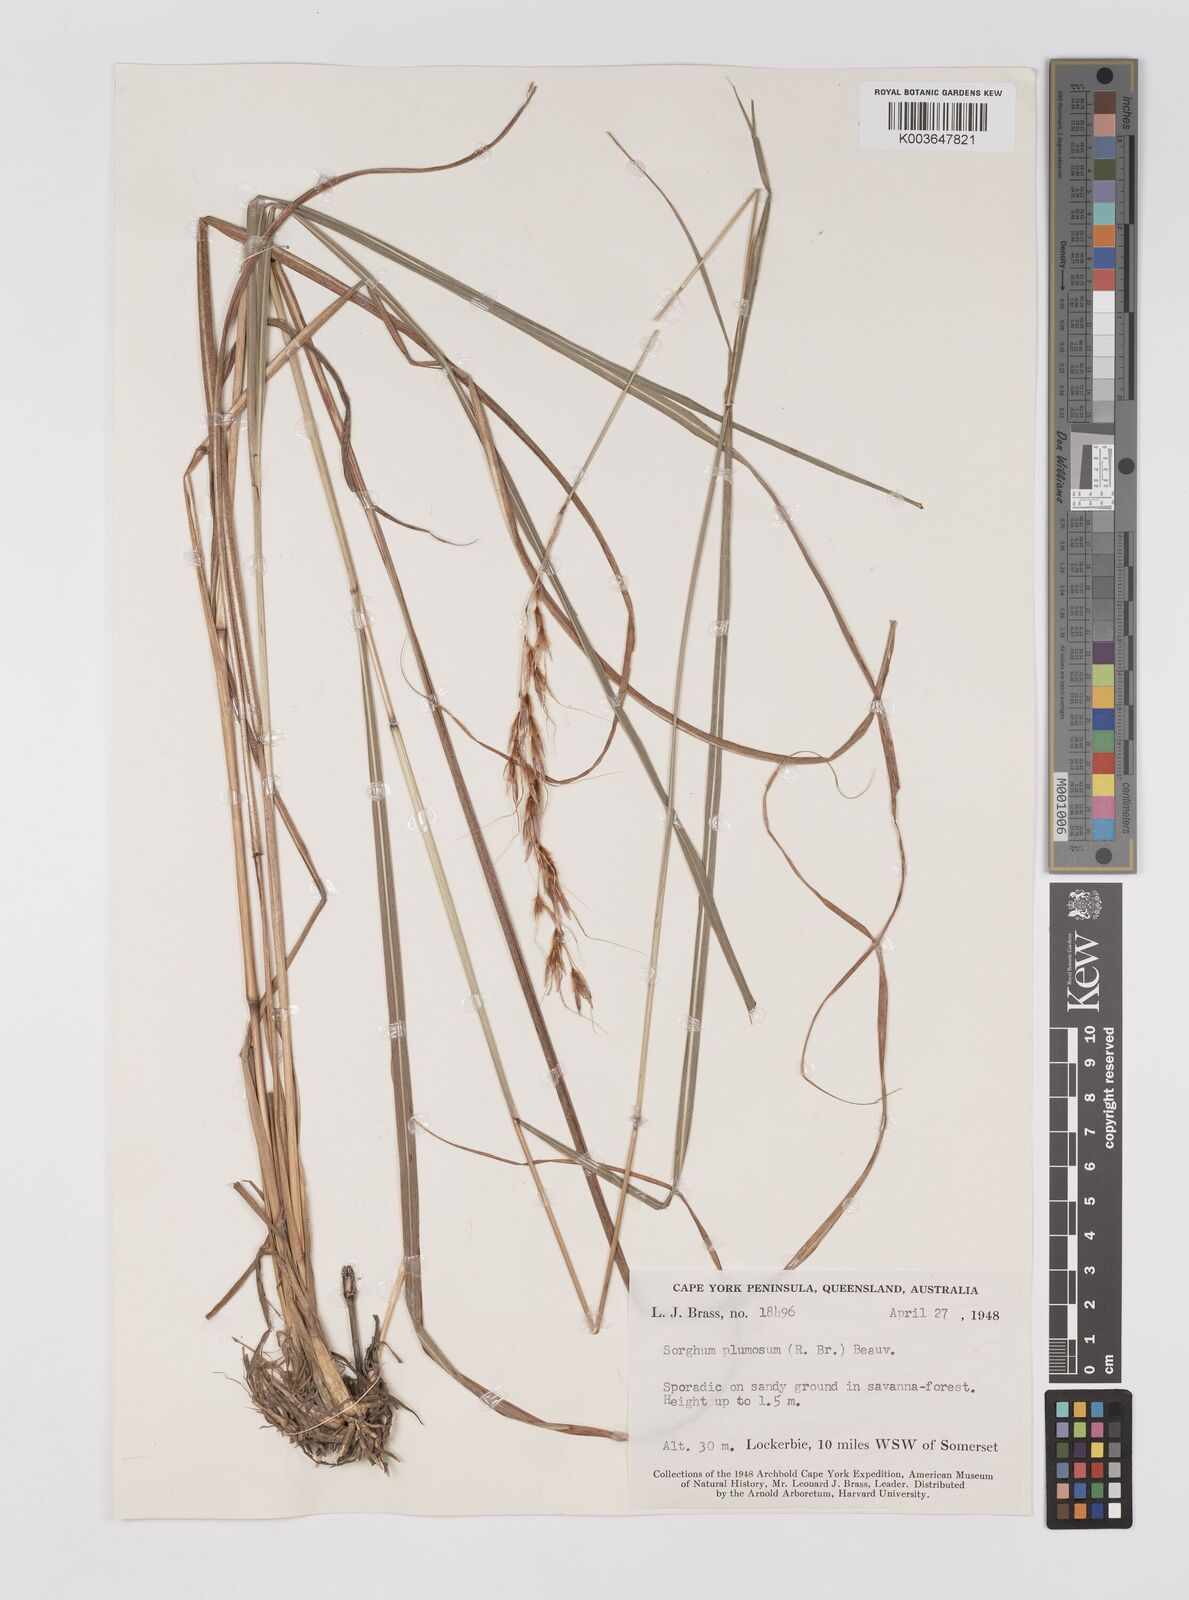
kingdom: Plantae
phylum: Tracheophyta
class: Liliopsida
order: Poales
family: Poaceae
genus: Sarga
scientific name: Sarga plumosa
